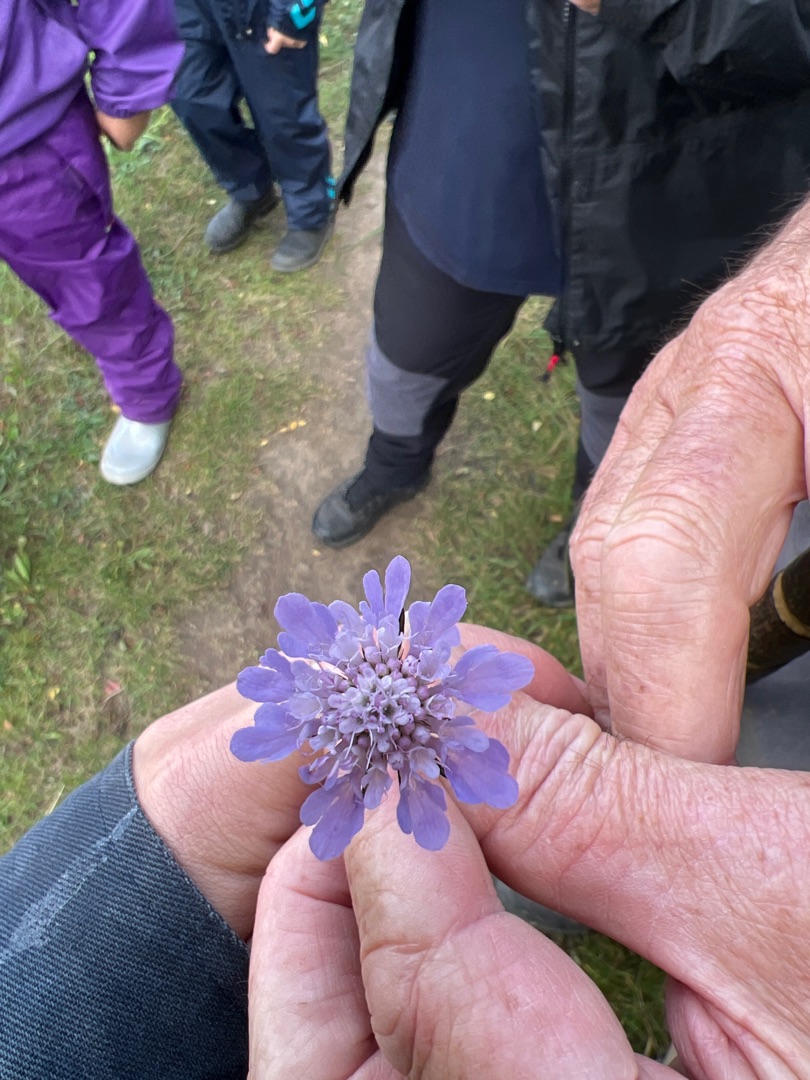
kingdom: Plantae
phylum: Tracheophyta
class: Magnoliopsida
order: Dipsacales
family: Caprifoliaceae
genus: Scabiosa
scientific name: Scabiosa columbaria
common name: Due-skabiose
